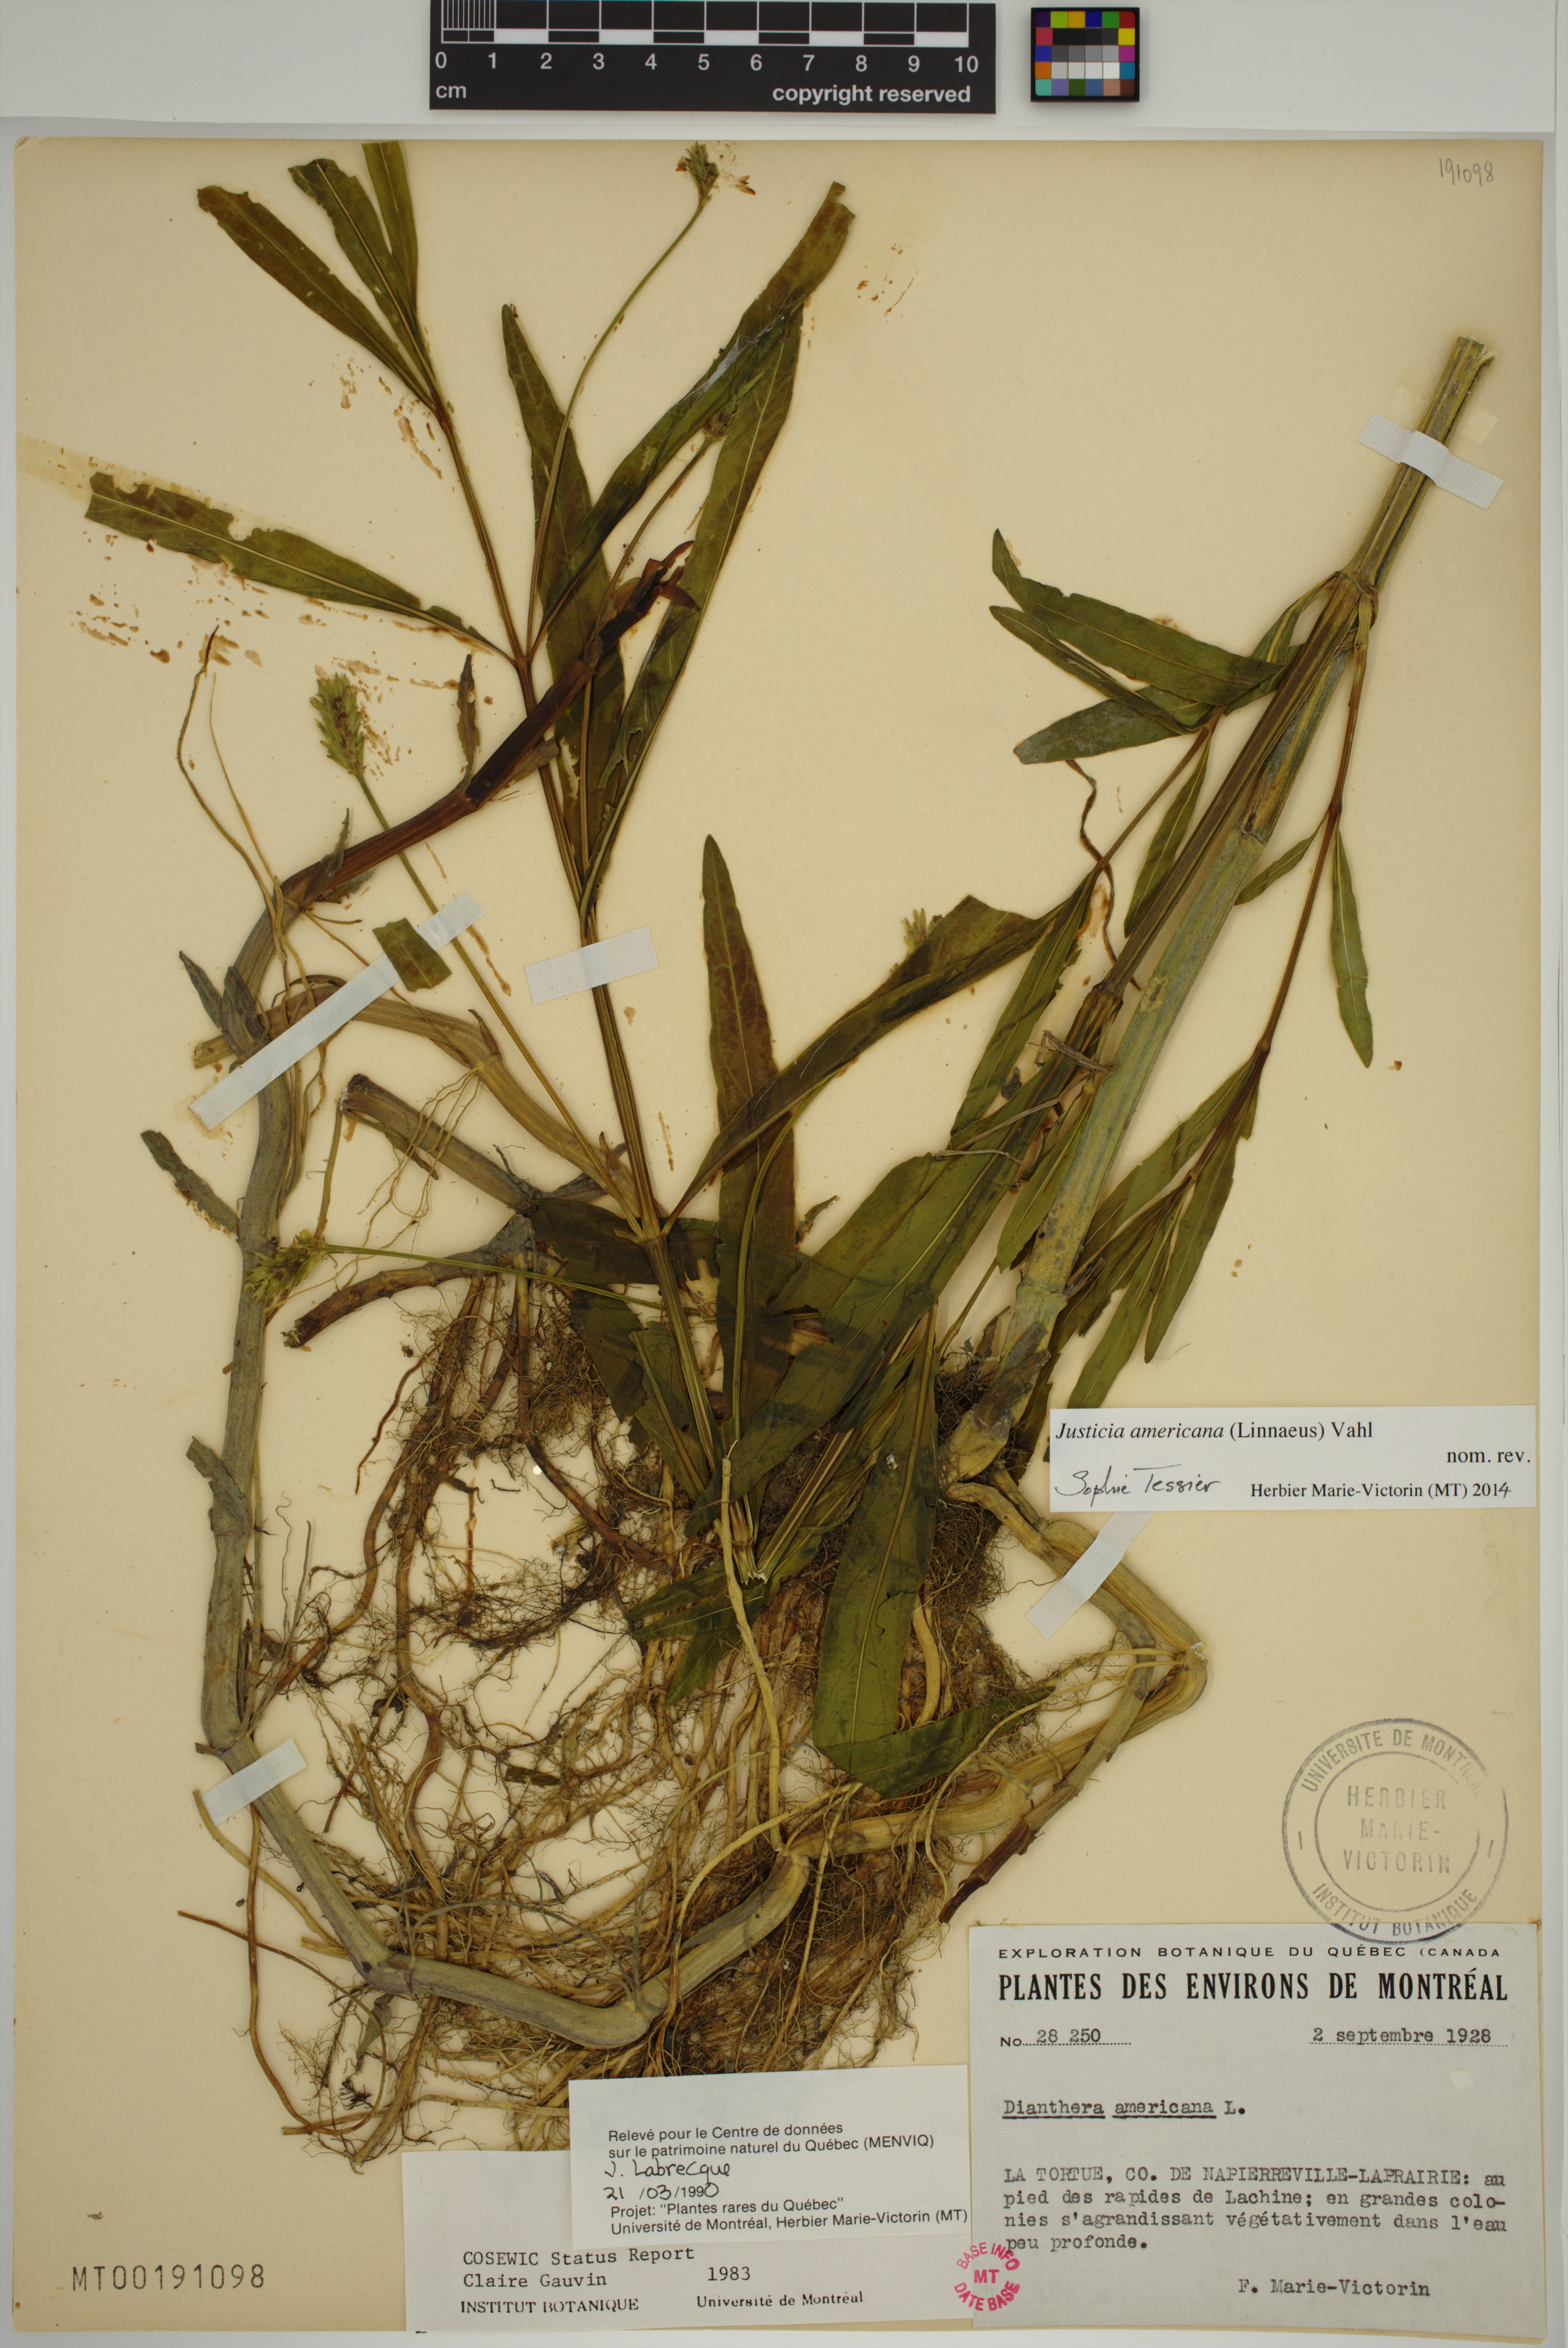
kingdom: Plantae
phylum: Tracheophyta
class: Magnoliopsida
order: Lamiales
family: Acanthaceae
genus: Dianthera
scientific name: Dianthera americana
